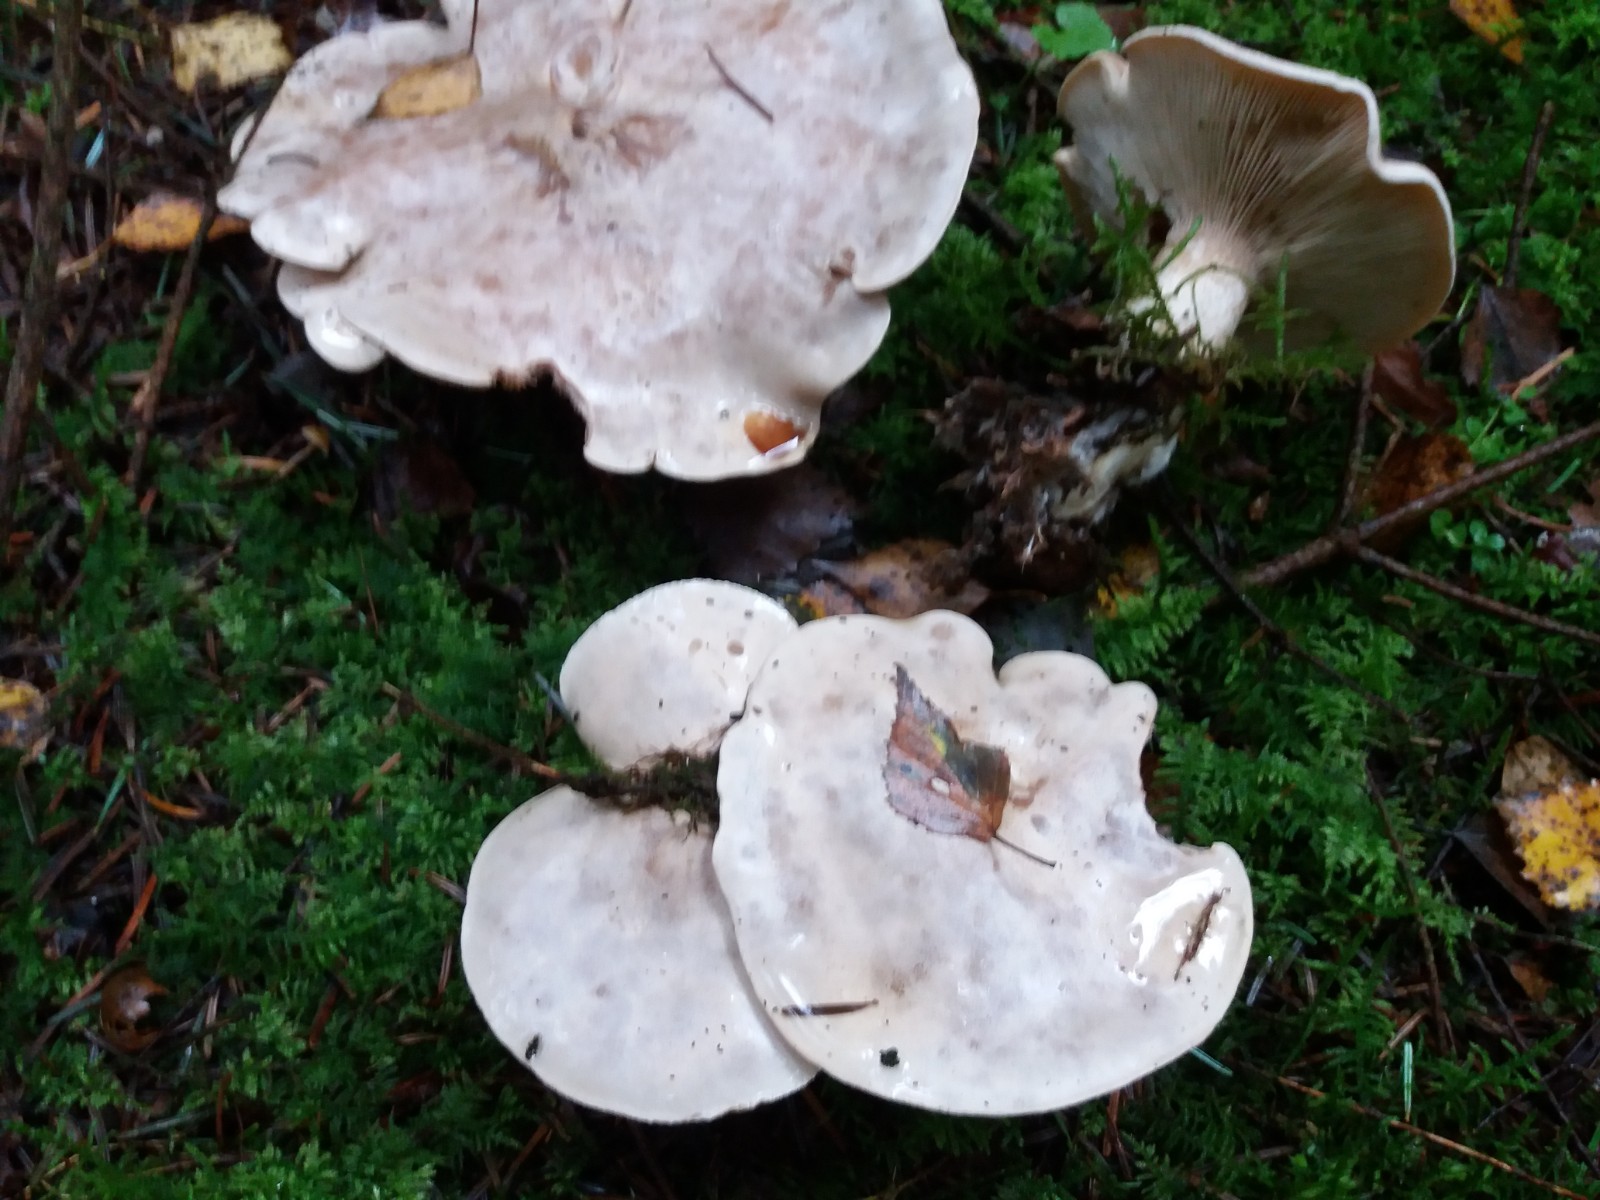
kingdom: Fungi
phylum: Basidiomycota
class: Agaricomycetes
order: Agaricales
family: Pseudoclitocybaceae
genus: Clitopaxillus
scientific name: Clitopaxillus fibulatus
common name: bestøvlet tragthat
